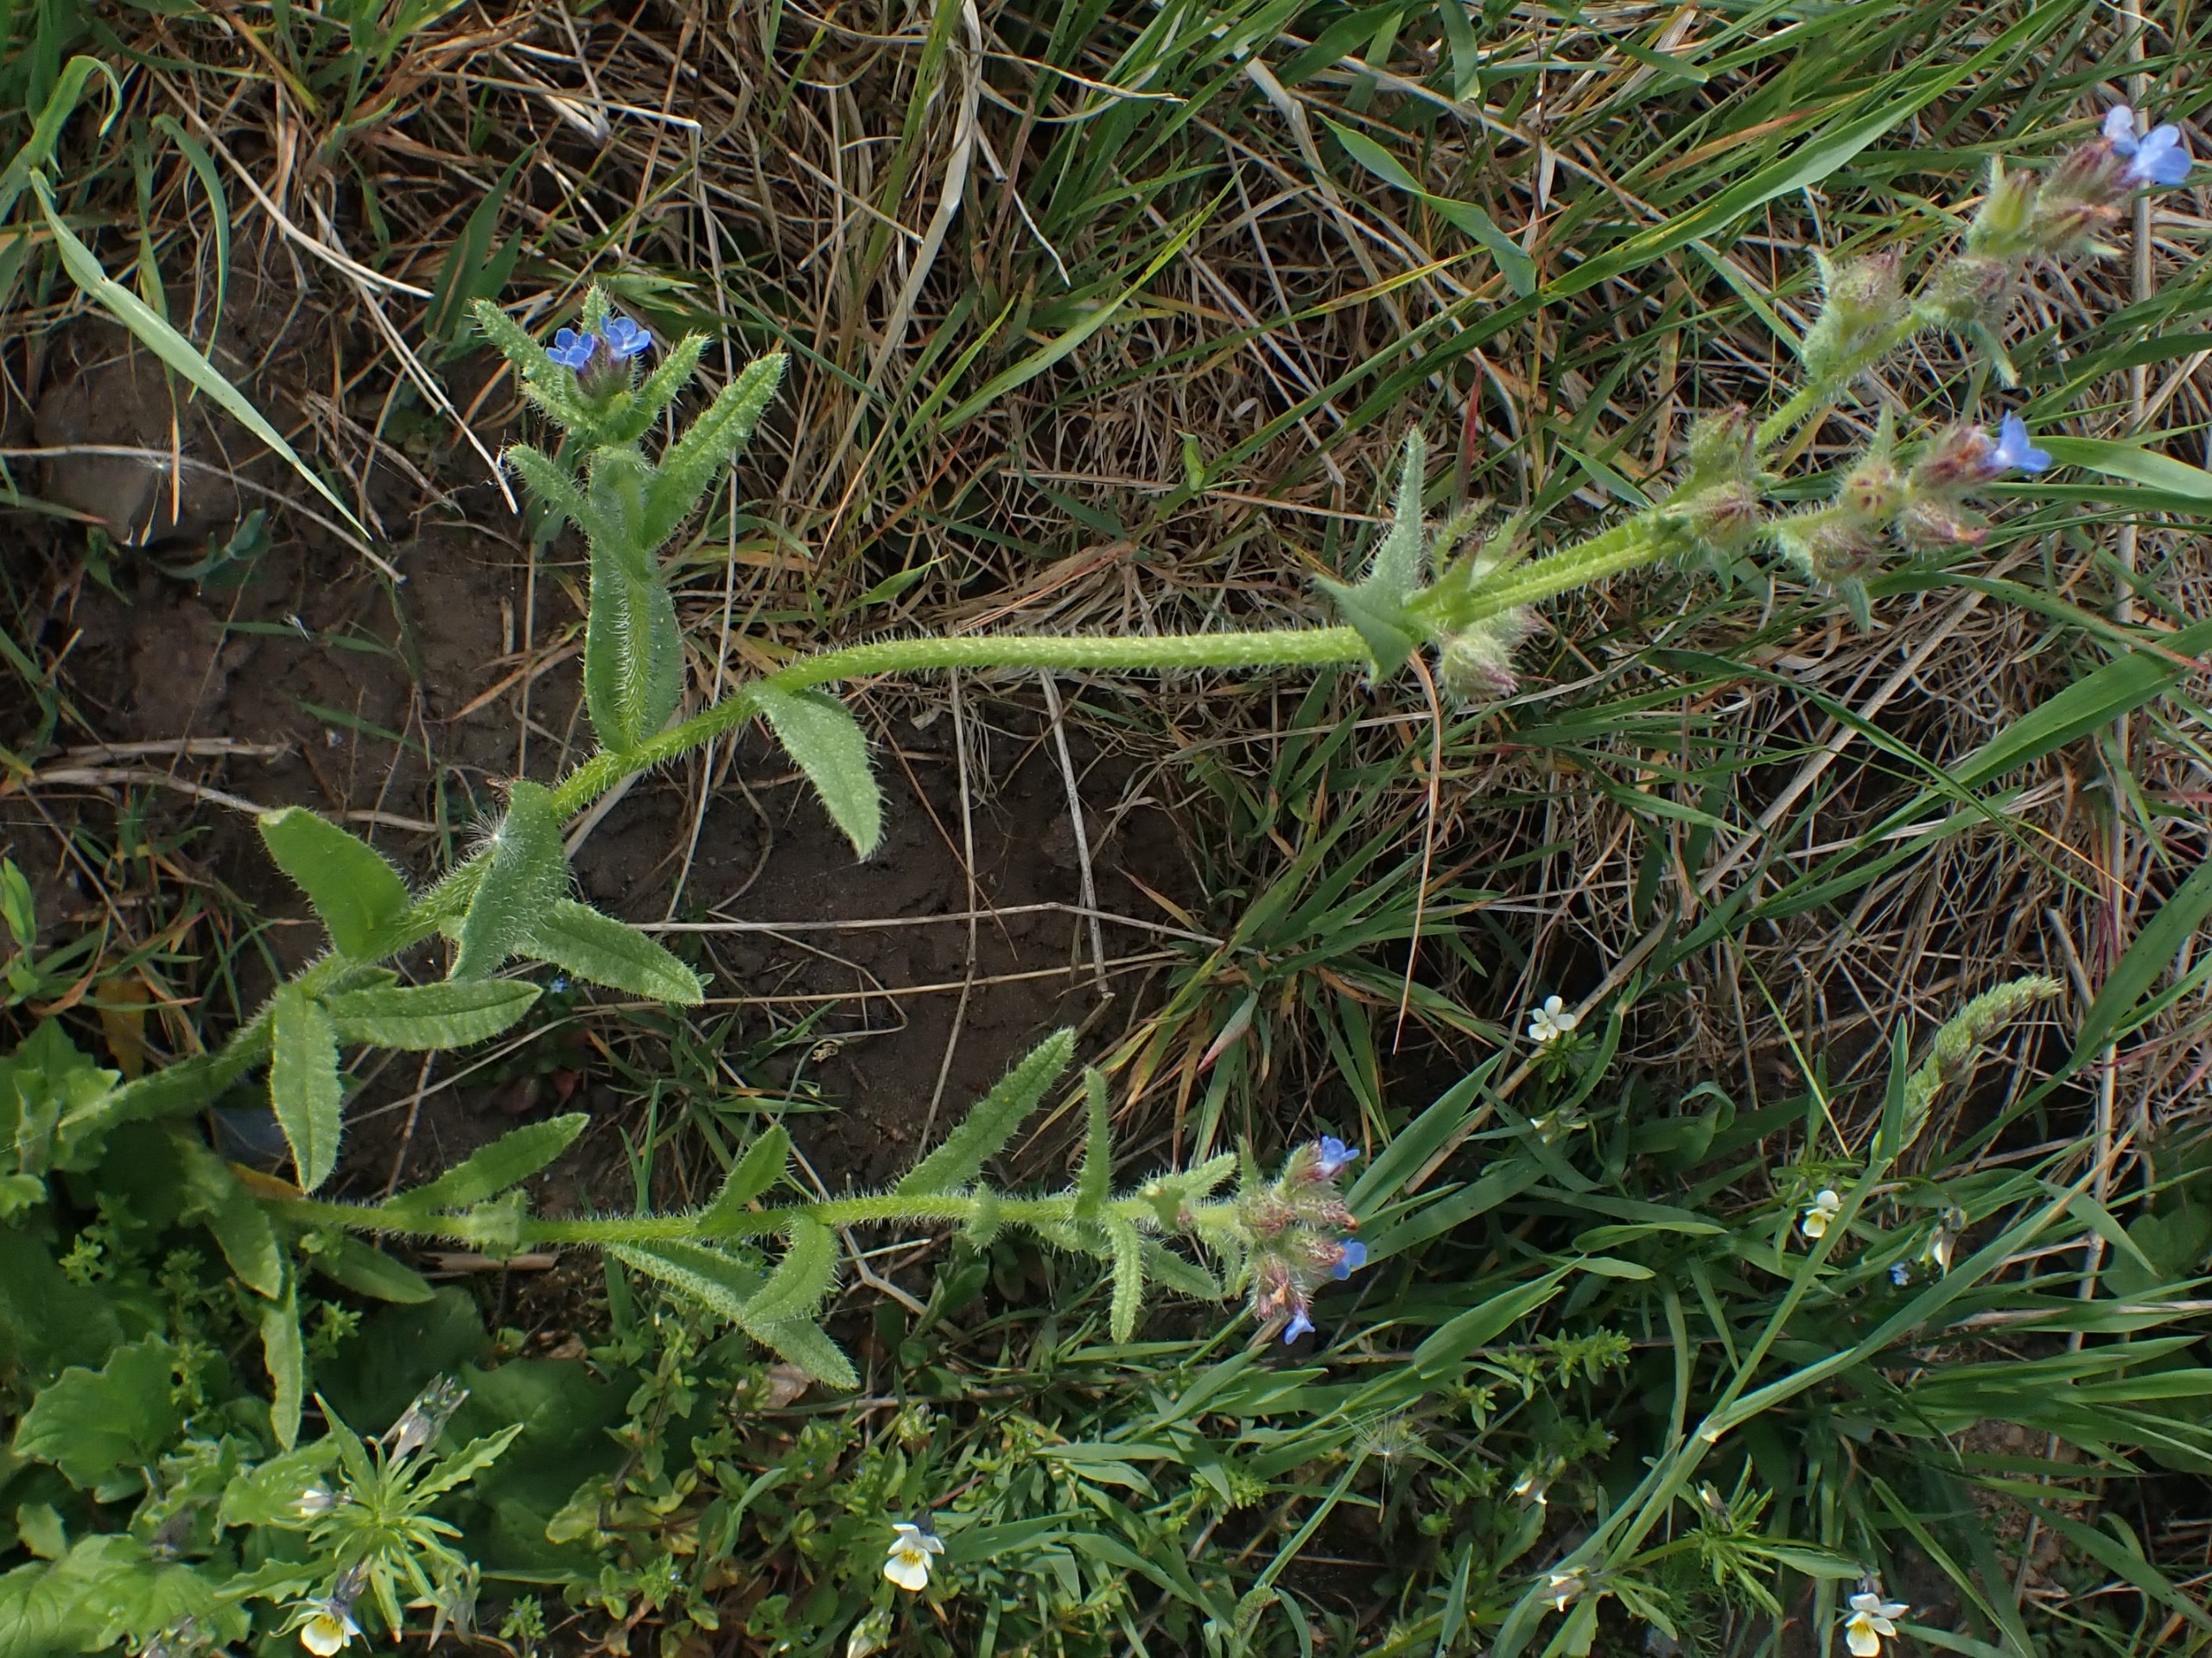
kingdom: Plantae
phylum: Tracheophyta
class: Magnoliopsida
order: Boraginales
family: Boraginaceae
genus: Lycopsis
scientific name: Lycopsis arvensis
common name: Krumhals
